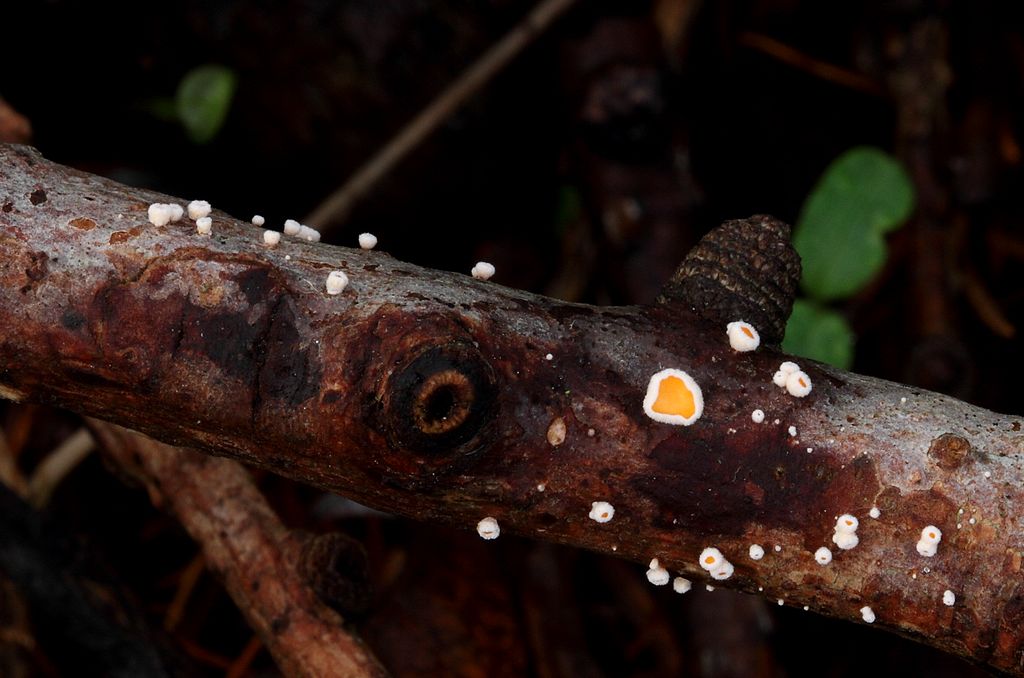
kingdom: Fungi
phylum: Ascomycota
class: Leotiomycetes
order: Helotiales
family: Lachnaceae
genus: Lachnellula
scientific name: Lachnellula occidentalis
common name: Larch disco
